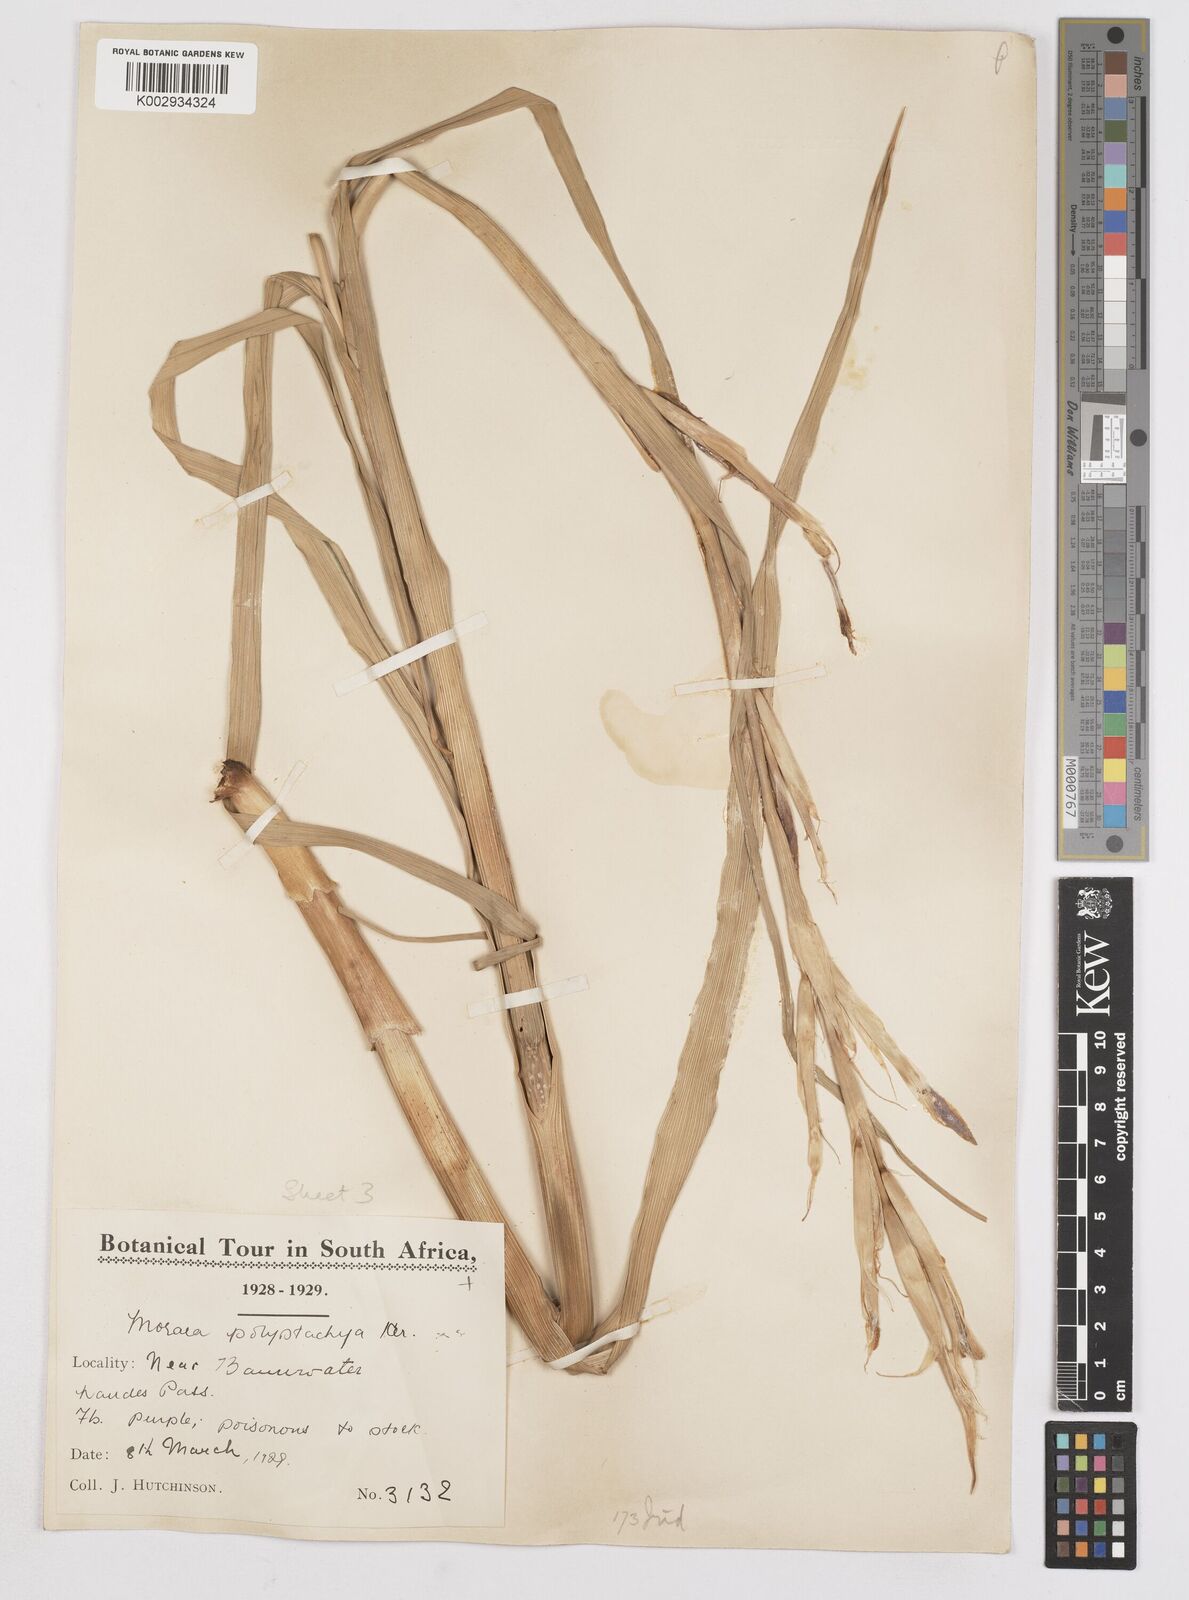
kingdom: Plantae
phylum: Tracheophyta
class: Liliopsida
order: Asparagales
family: Iridaceae
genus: Moraea
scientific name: Moraea polystachya
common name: Blue-tulip
